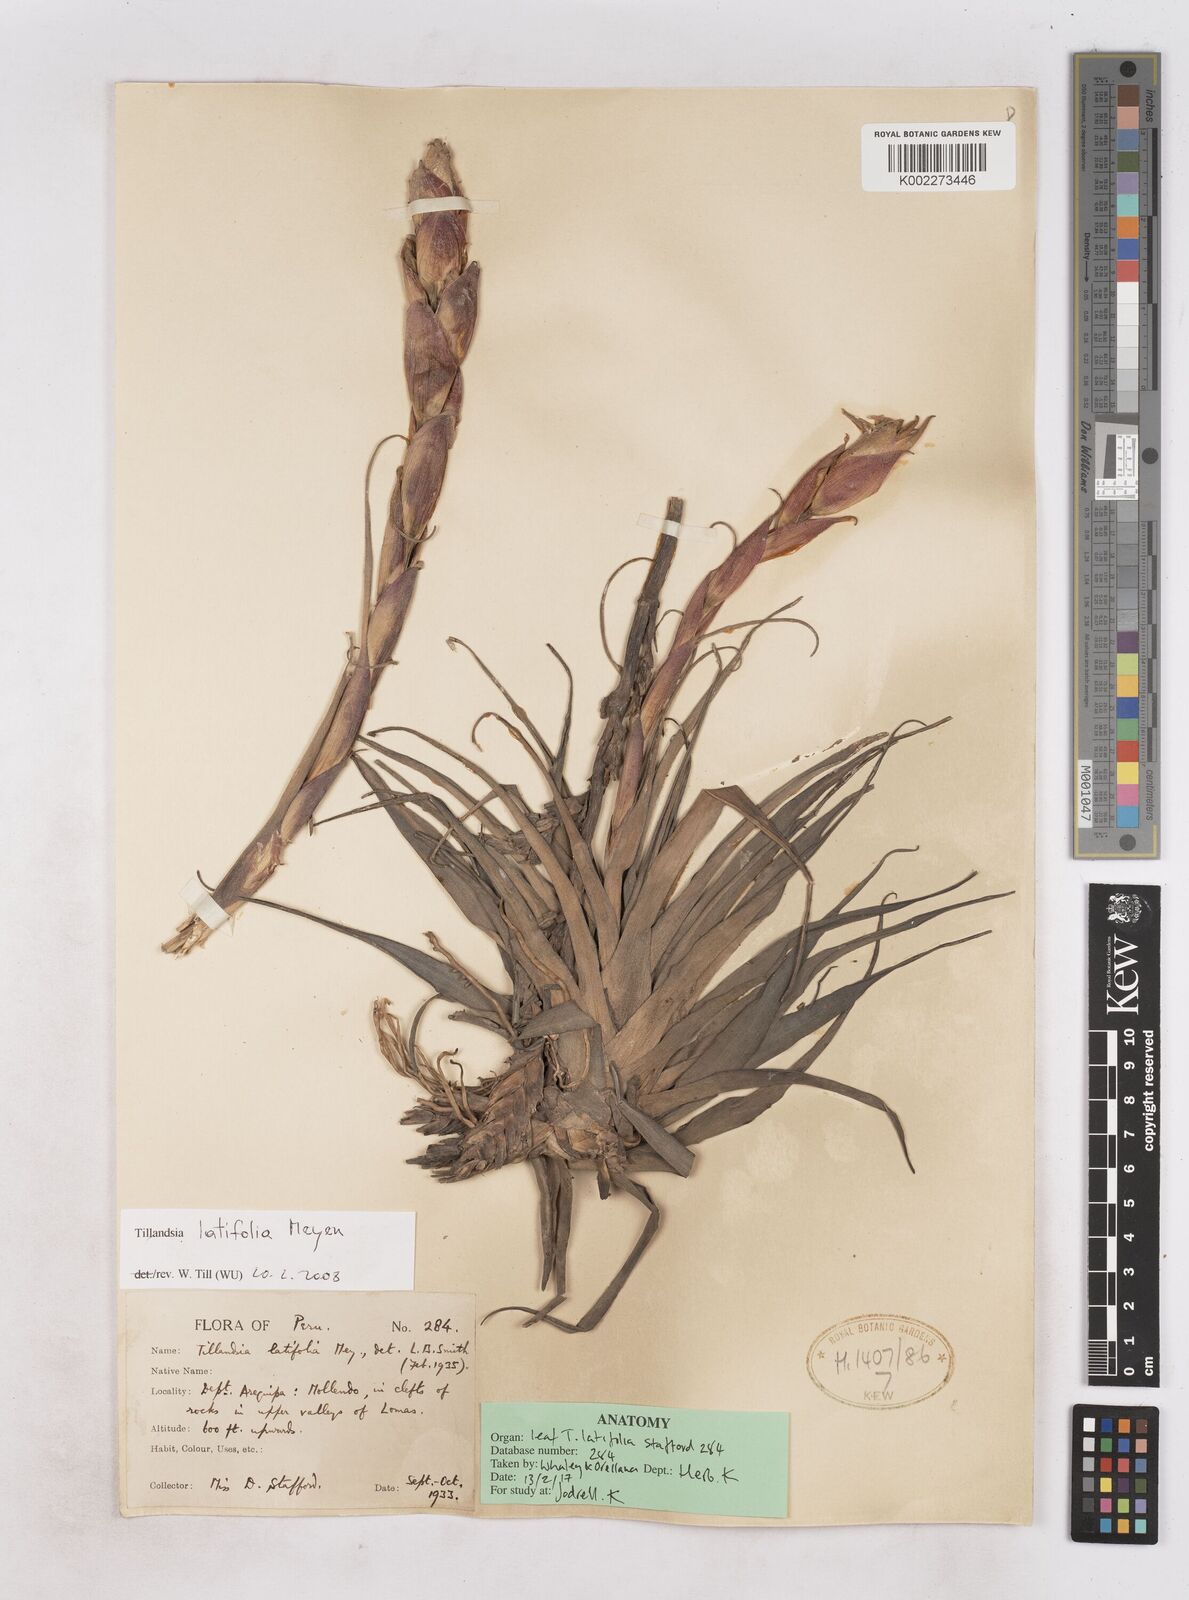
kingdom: Plantae
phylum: Tracheophyta
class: Liliopsida
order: Poales
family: Bromeliaceae
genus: Tillandsia
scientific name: Tillandsia latifolia
